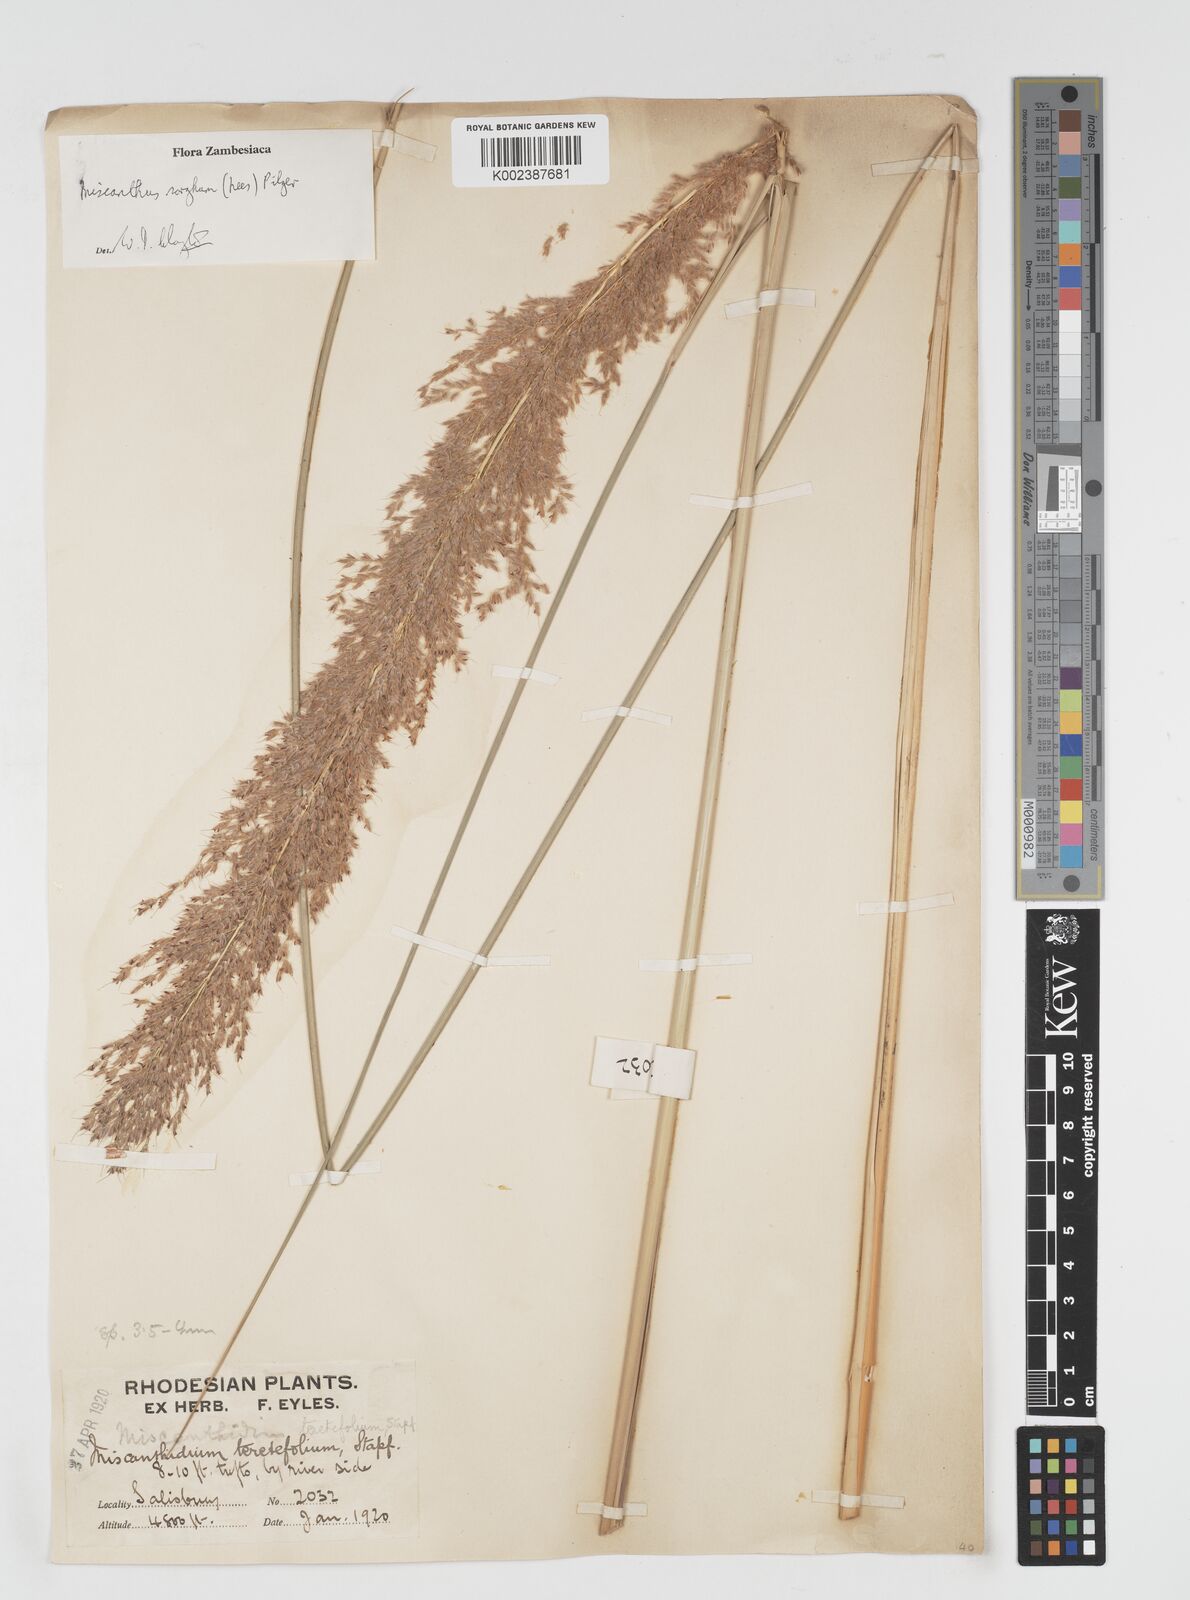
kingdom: Plantae
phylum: Tracheophyta
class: Liliopsida
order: Poales
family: Poaceae
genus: Miscanthus
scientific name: Miscanthus ecklonii
